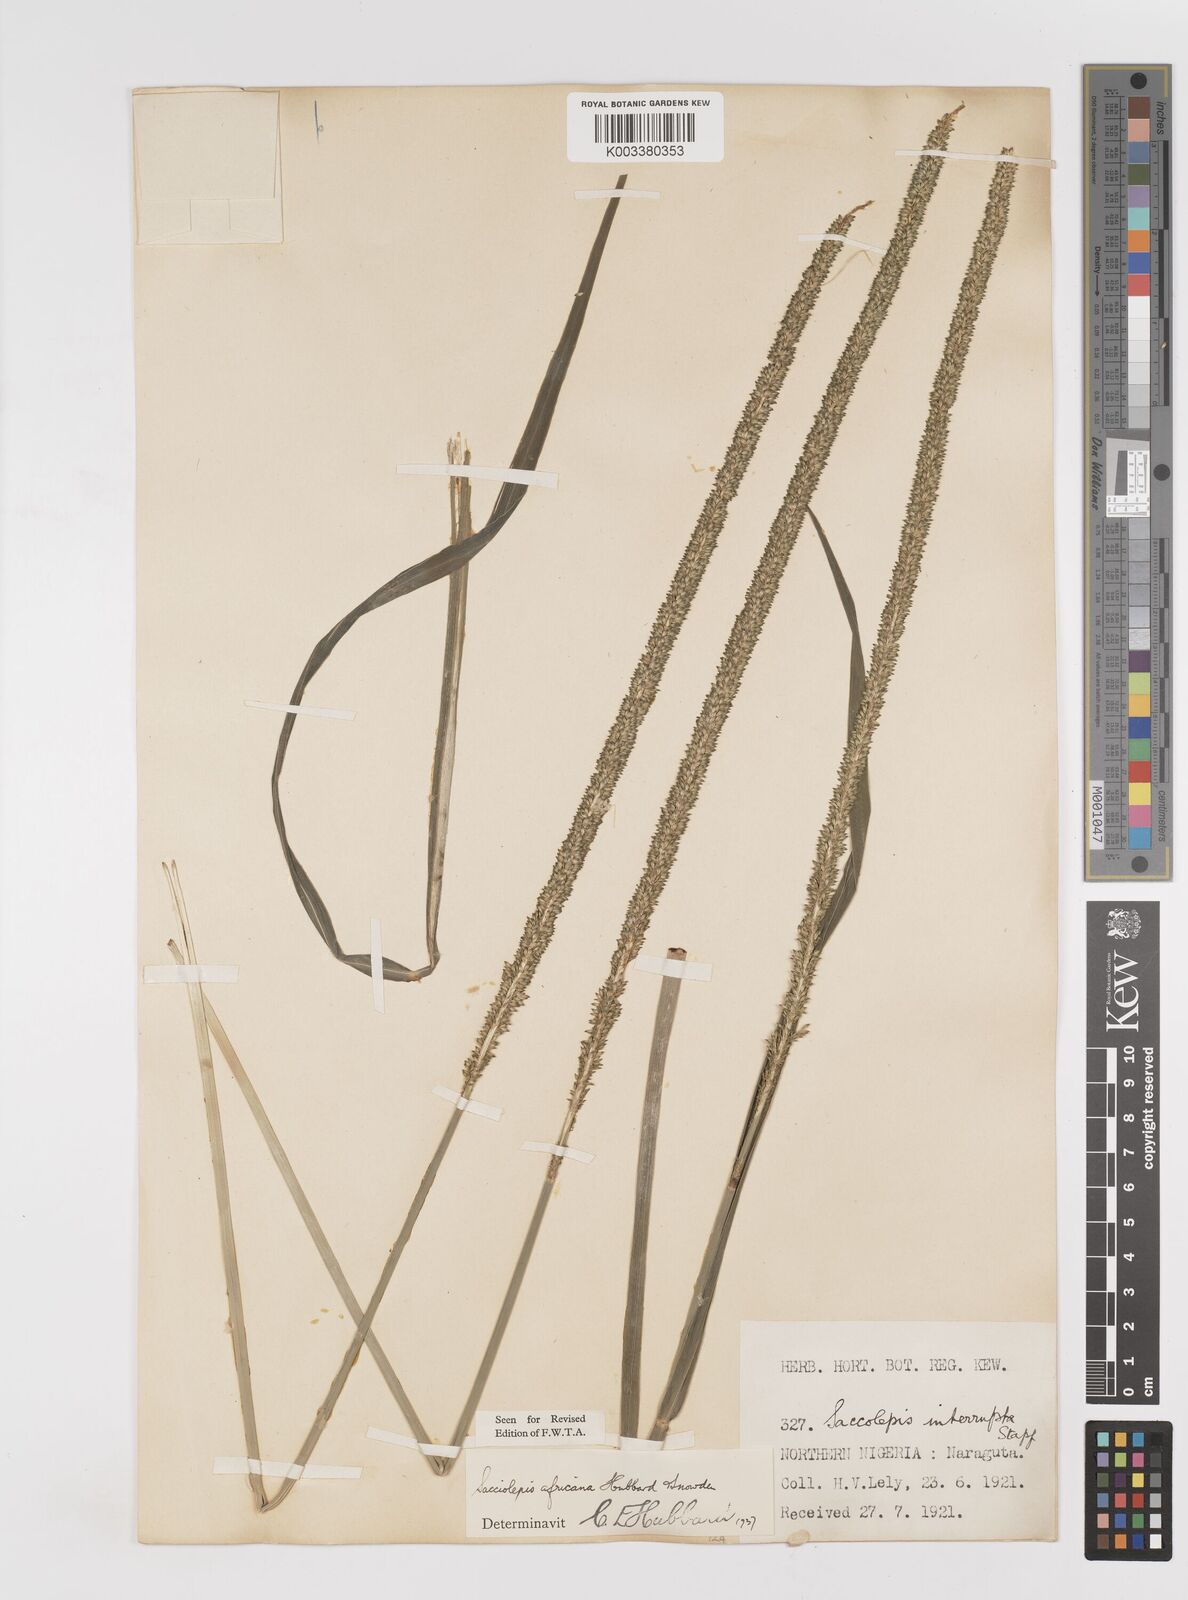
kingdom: Plantae
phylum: Tracheophyta
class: Liliopsida
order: Poales
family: Poaceae
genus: Sacciolepis
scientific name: Sacciolepis africana
